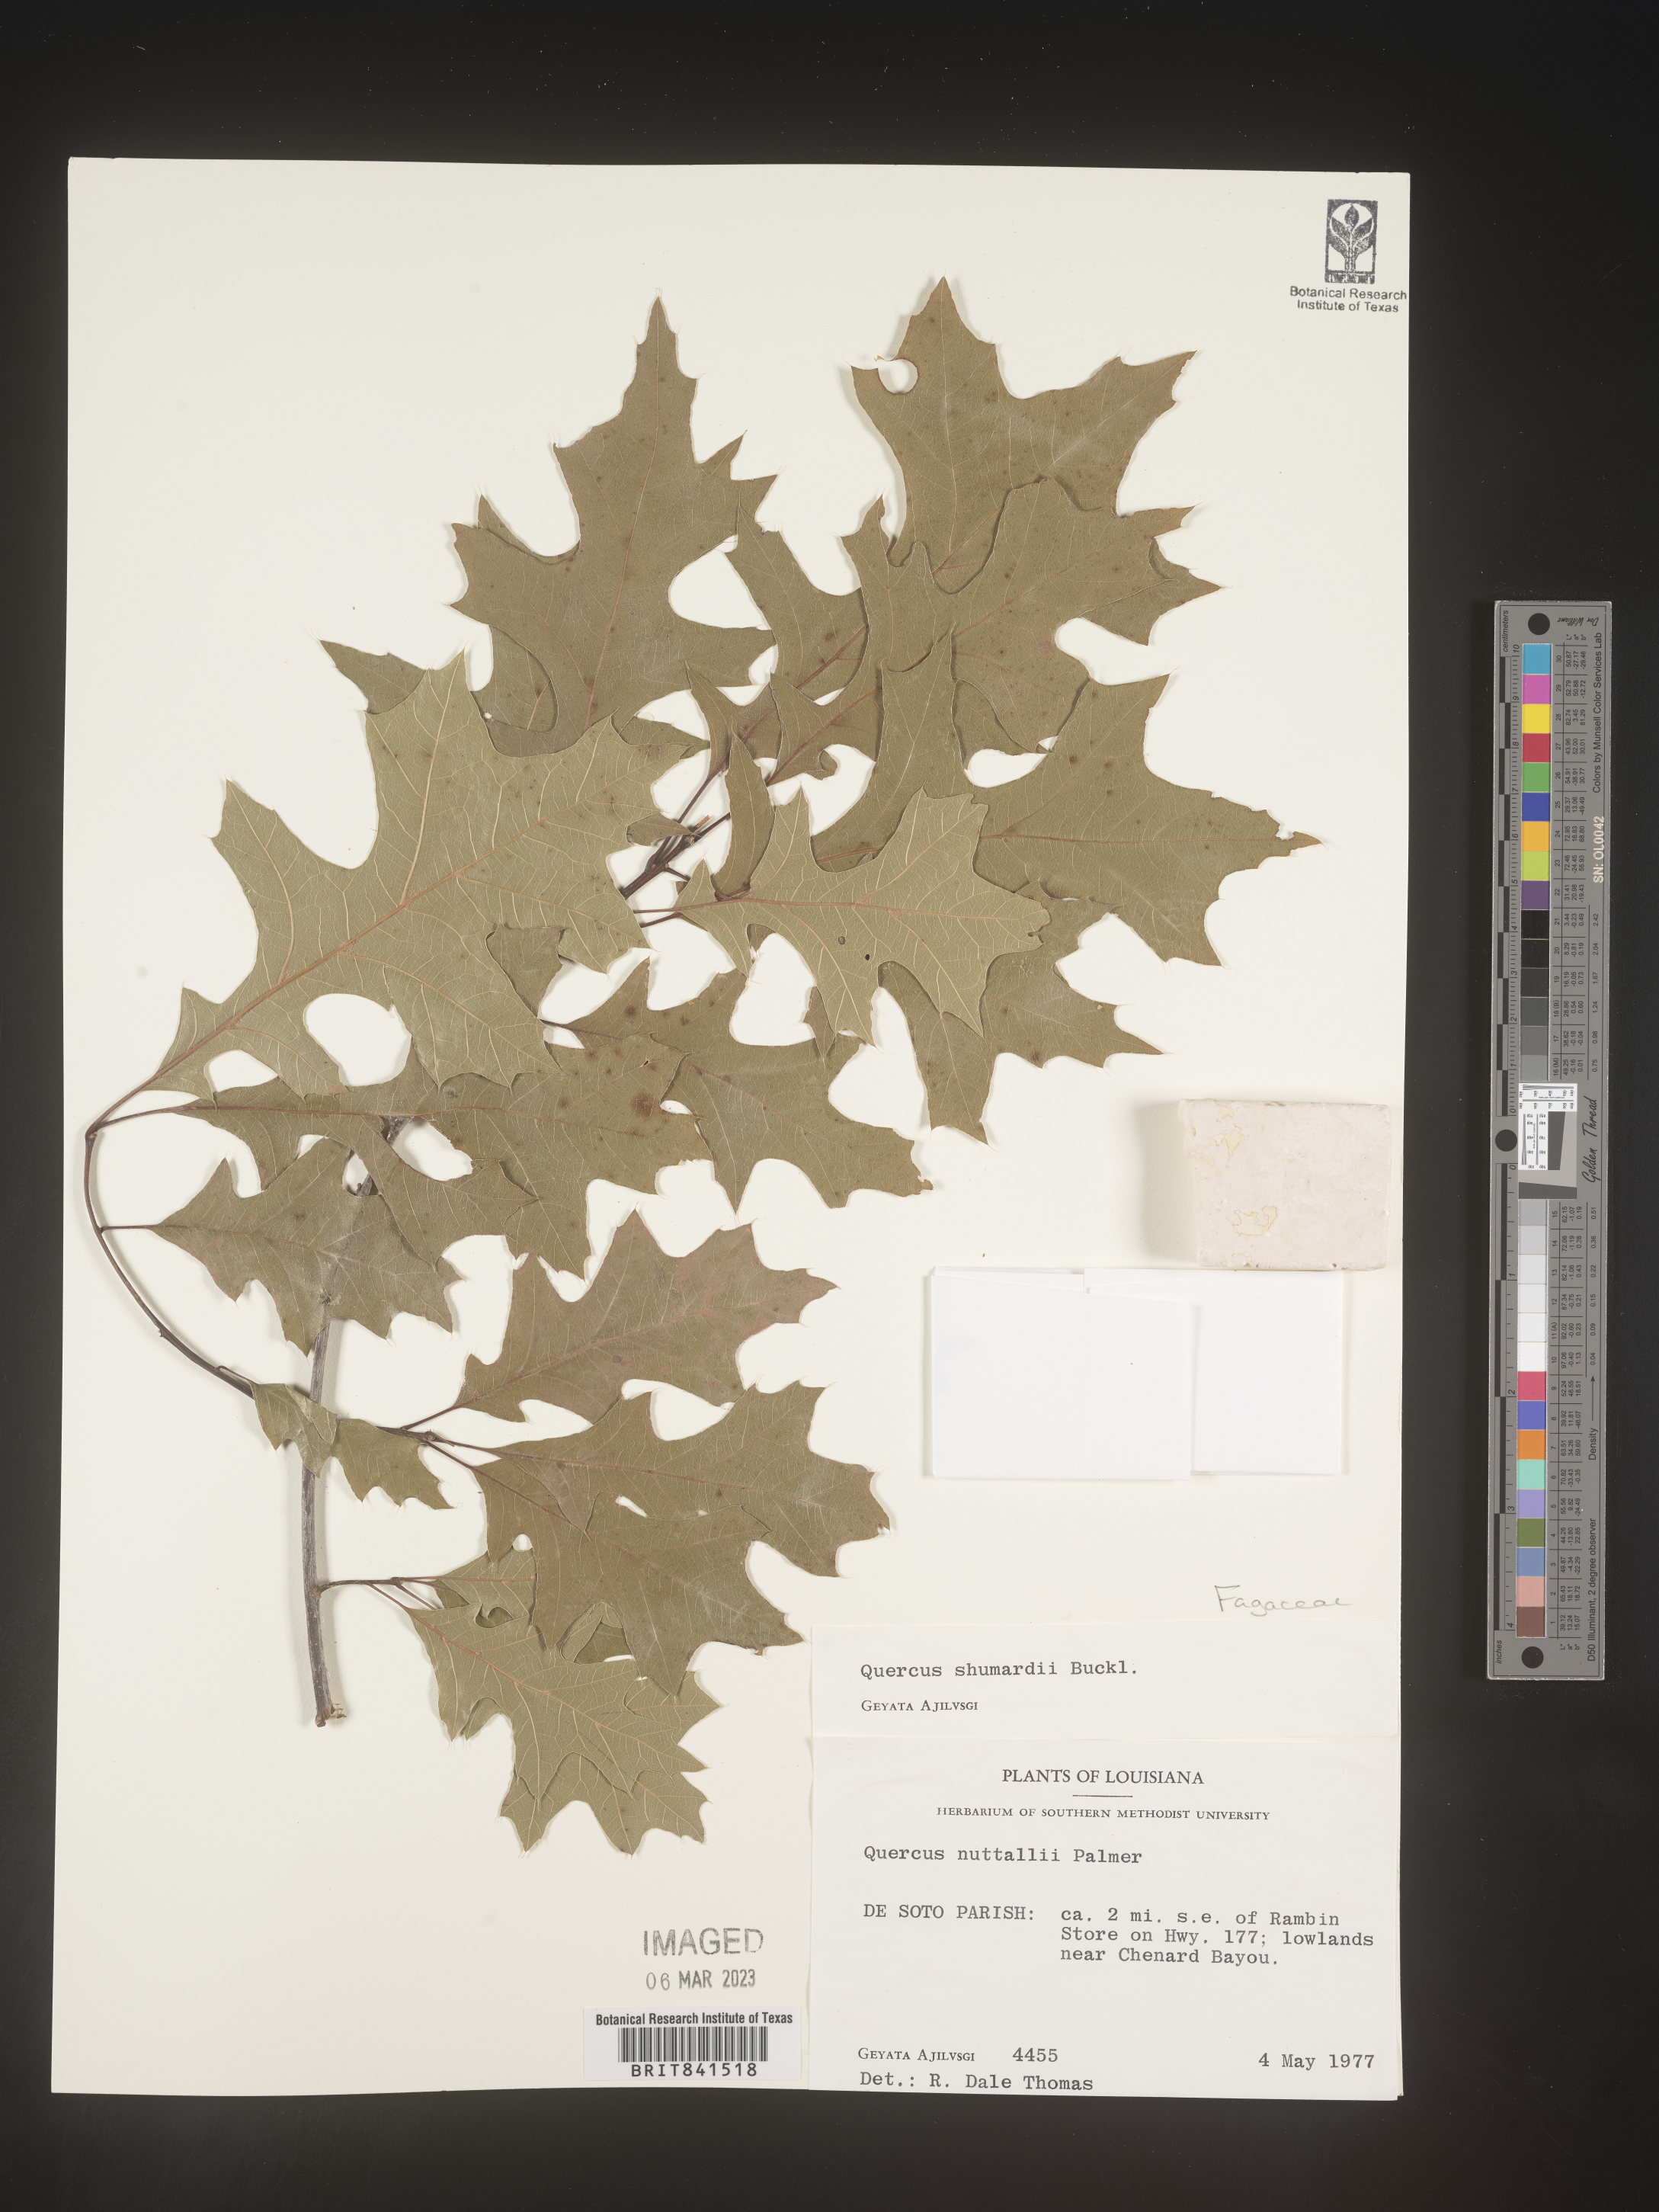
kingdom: Plantae
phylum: Tracheophyta
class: Magnoliopsida
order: Fagales
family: Fagaceae
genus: Quercus
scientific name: Quercus shumardii
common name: Shumard oak
